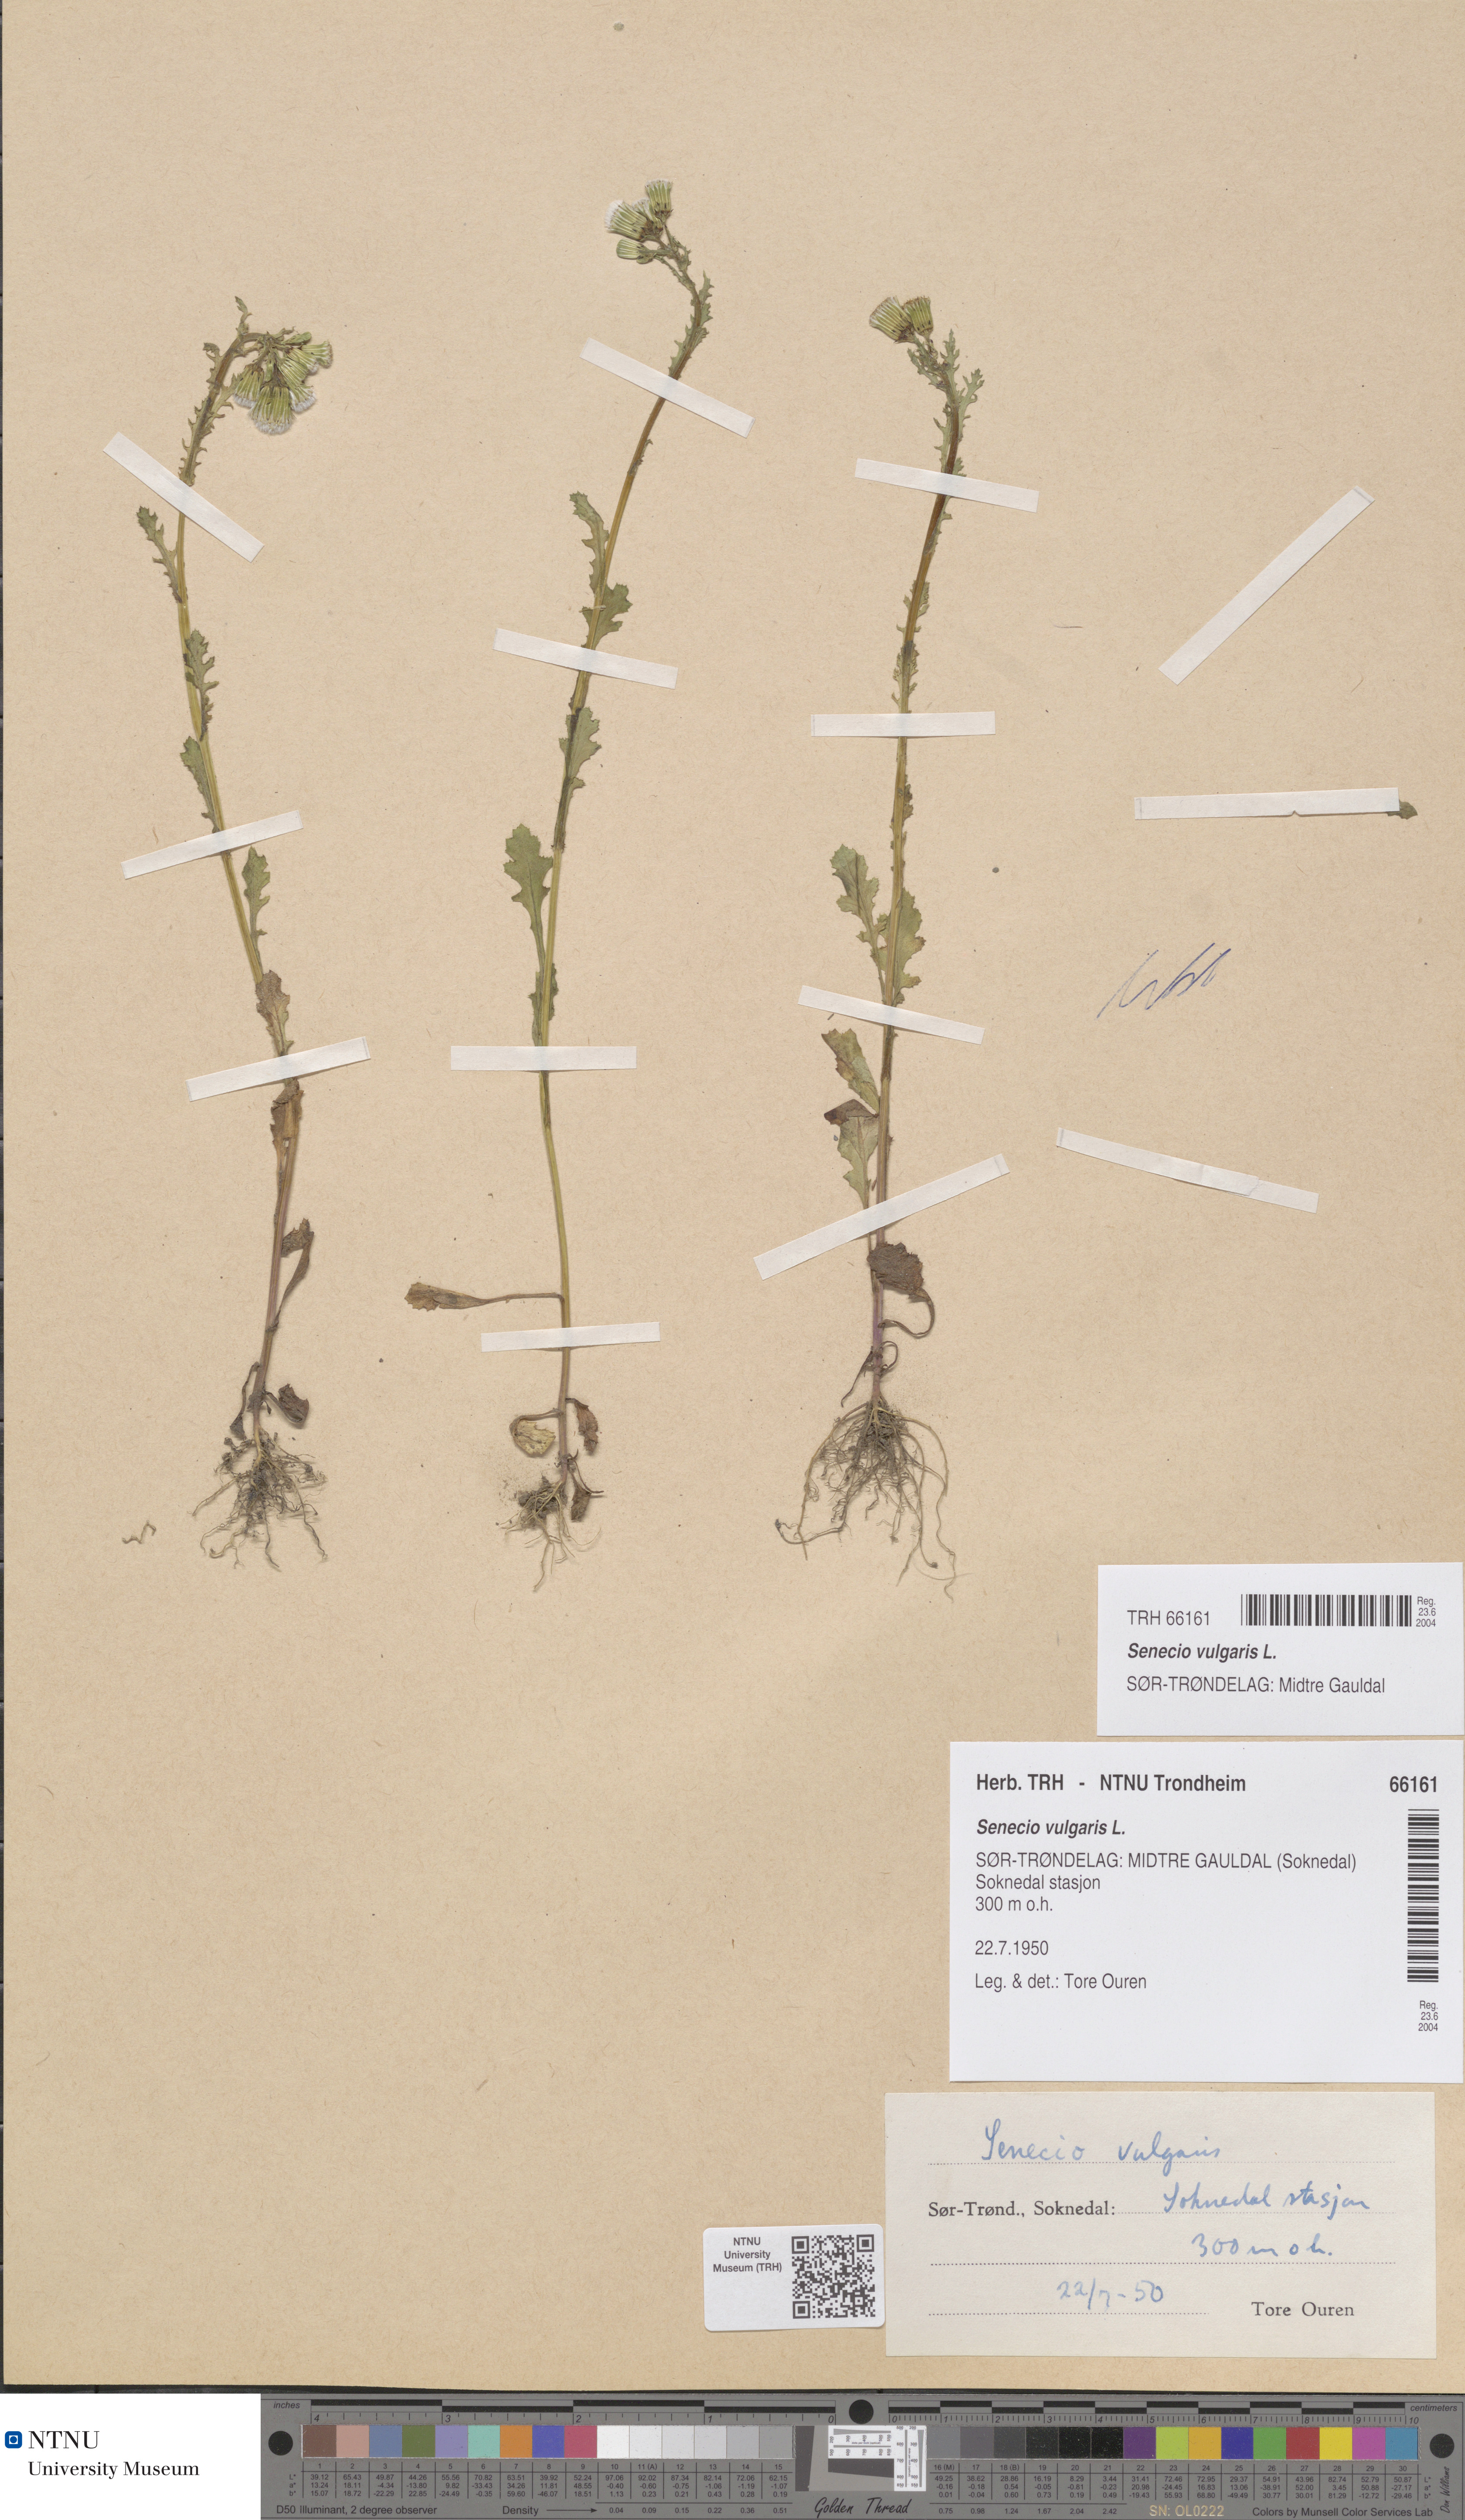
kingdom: Plantae
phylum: Tracheophyta
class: Magnoliopsida
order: Asterales
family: Asteraceae
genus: Senecio
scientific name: Senecio vulgaris
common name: Old-man-in-the-spring
